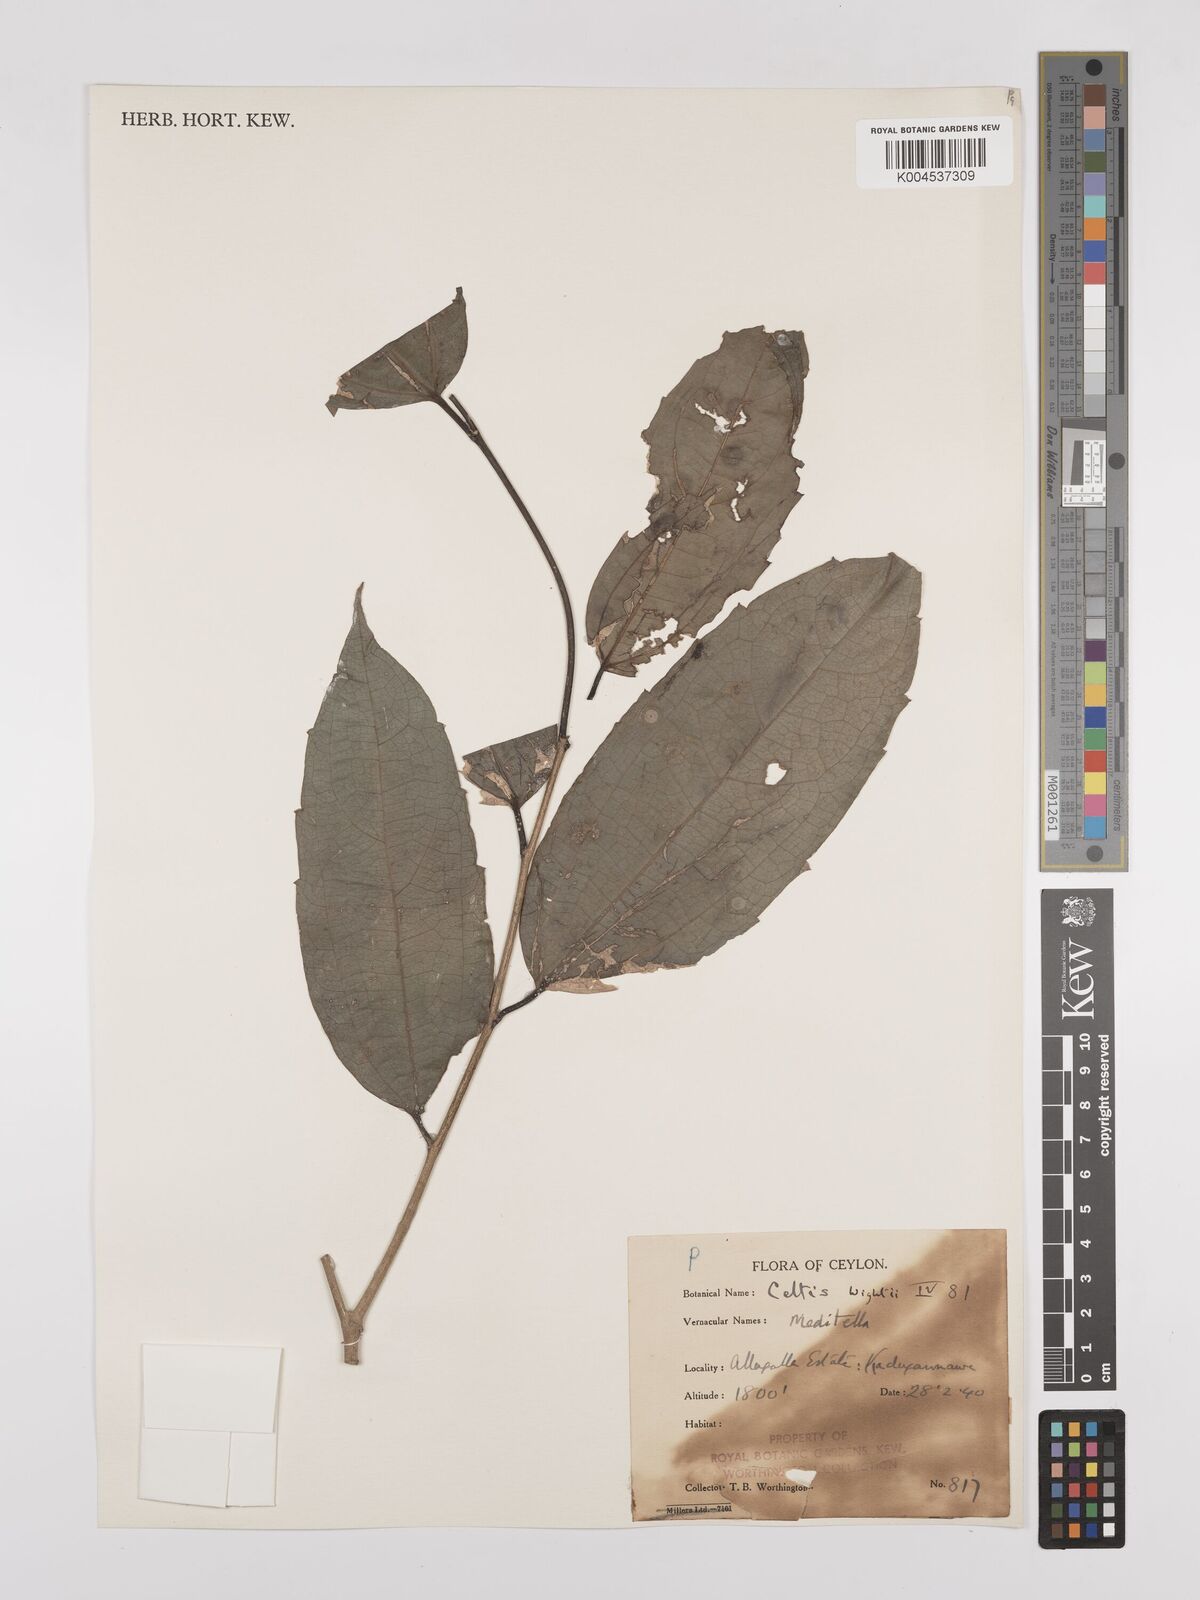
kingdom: Plantae
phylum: Tracheophyta
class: Magnoliopsida
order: Rosales
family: Cannabaceae
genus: Celtis
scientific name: Celtis philippensis
